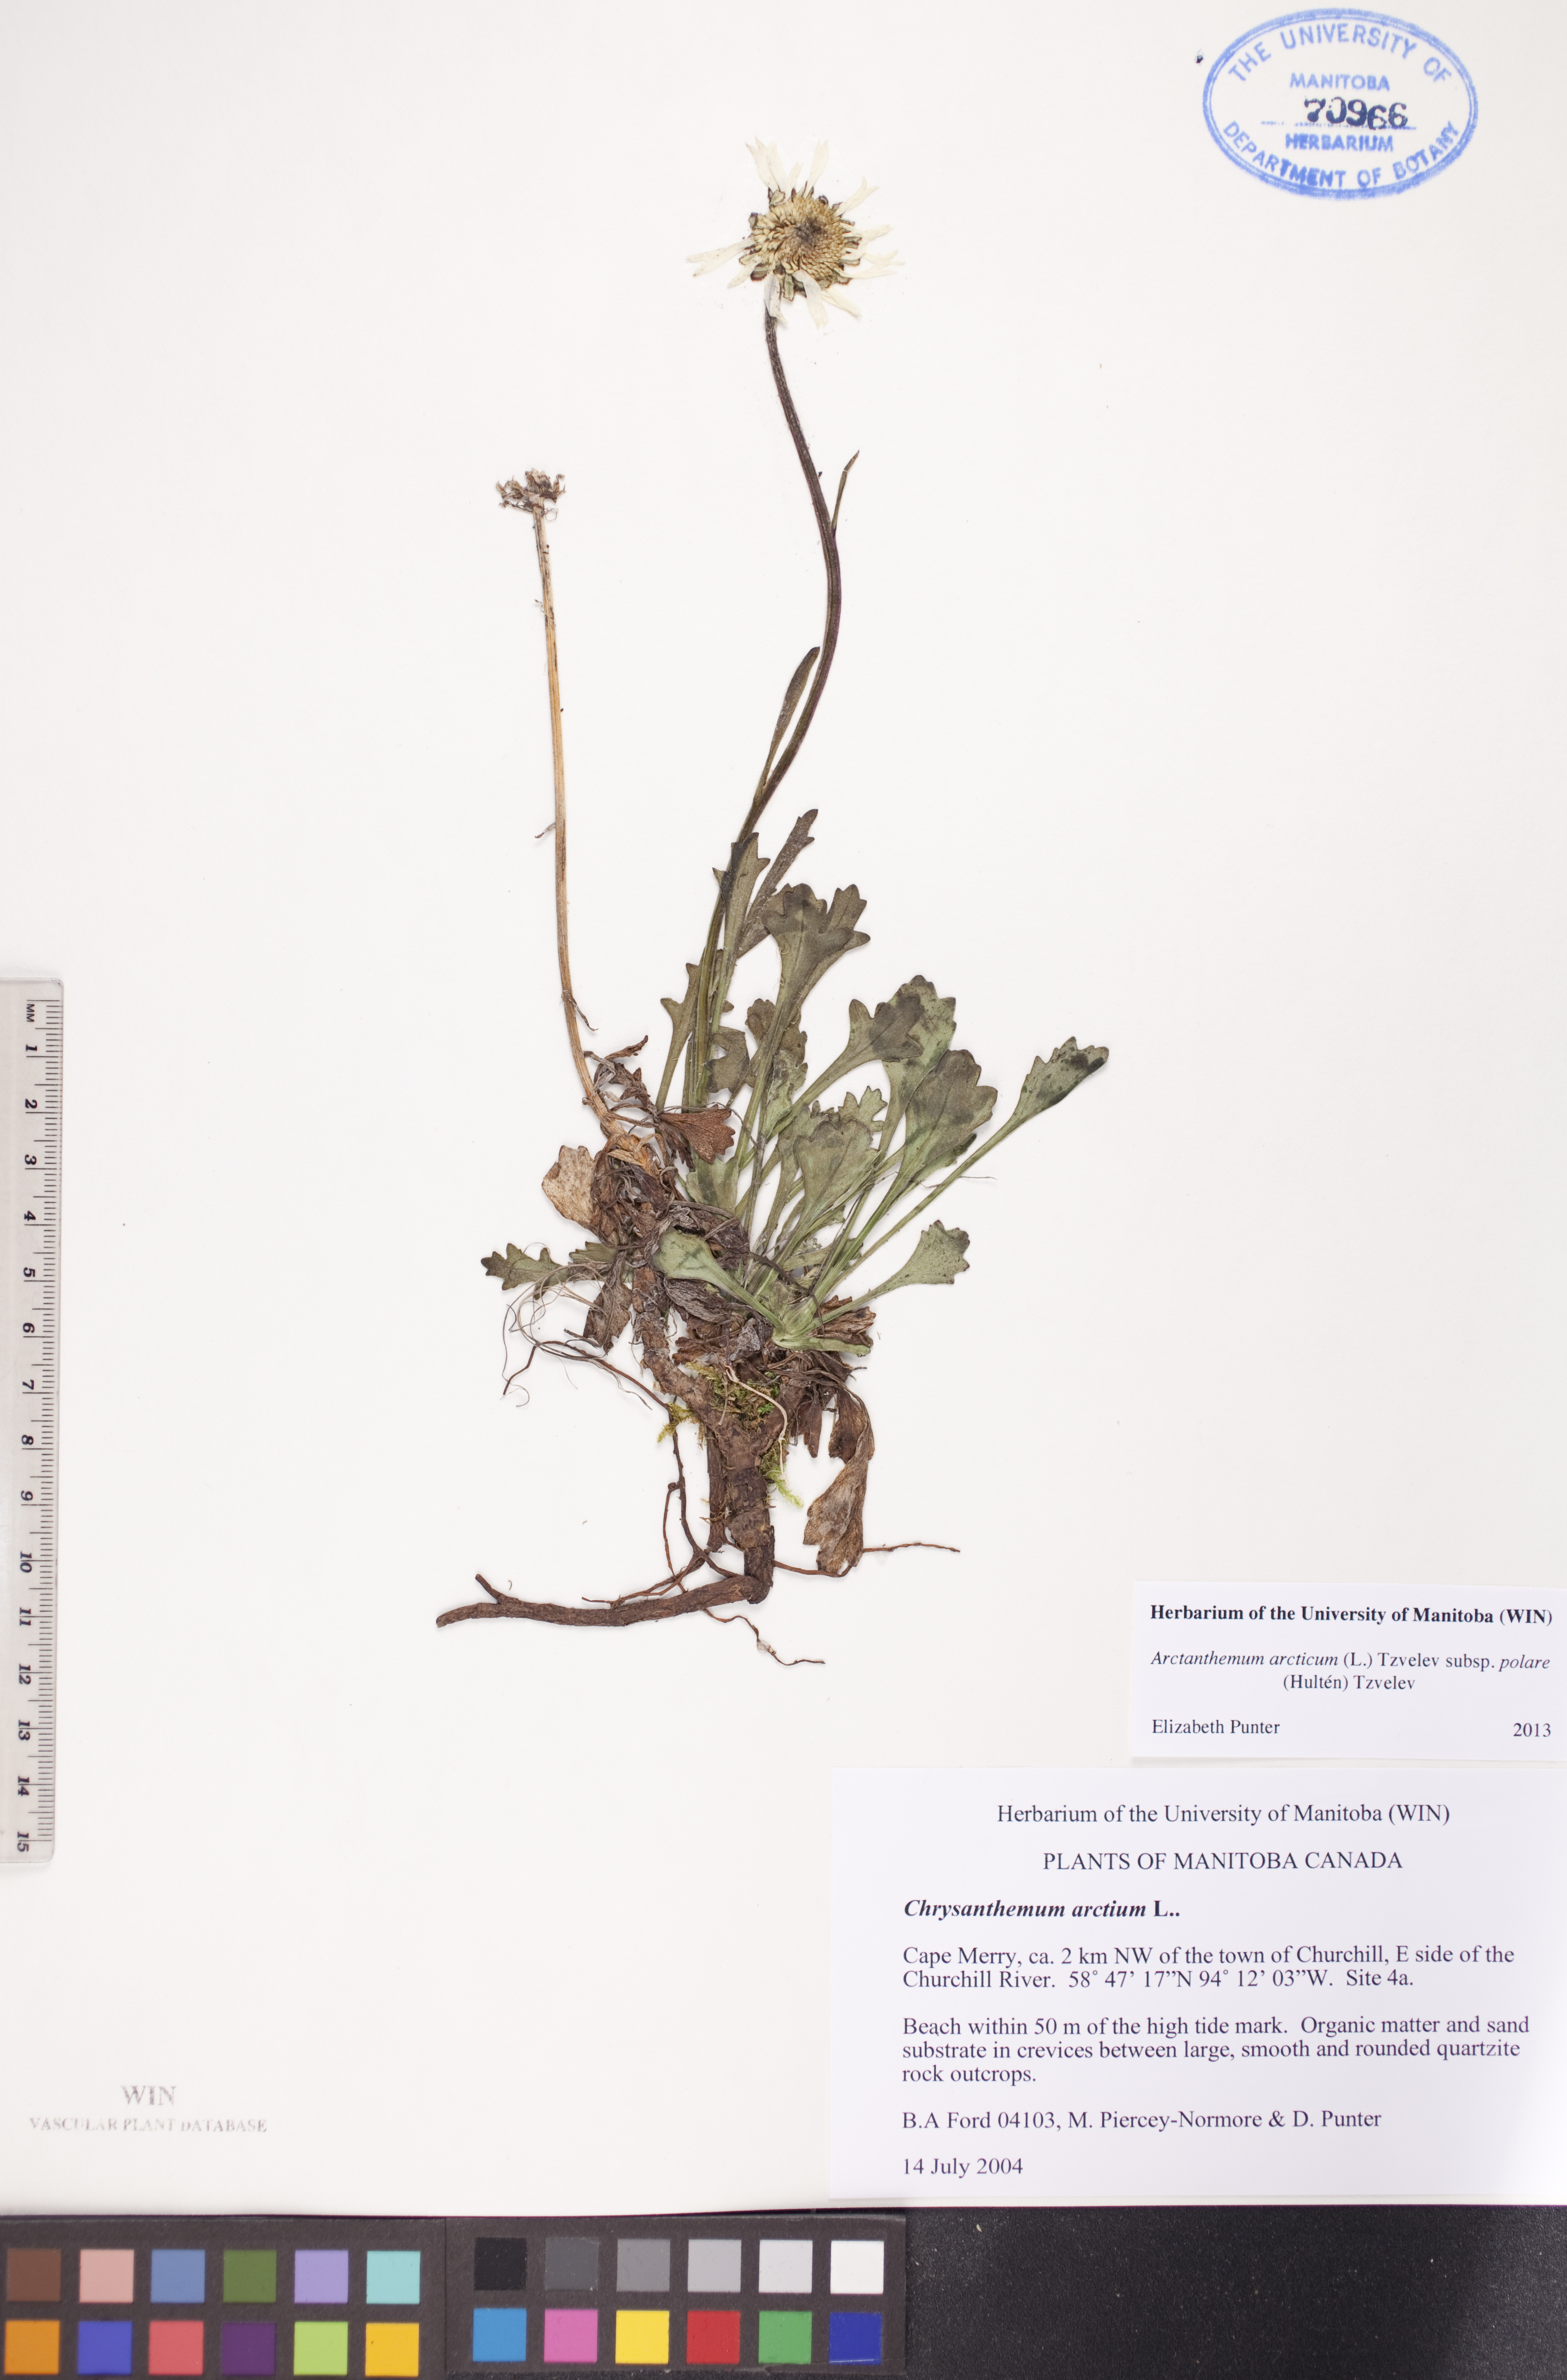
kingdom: Plantae
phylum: Tracheophyta
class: Magnoliopsida
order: Asterales
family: Asteraceae
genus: Arctanthemum
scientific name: Arctanthemum arcticum
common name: Arctic daisy
